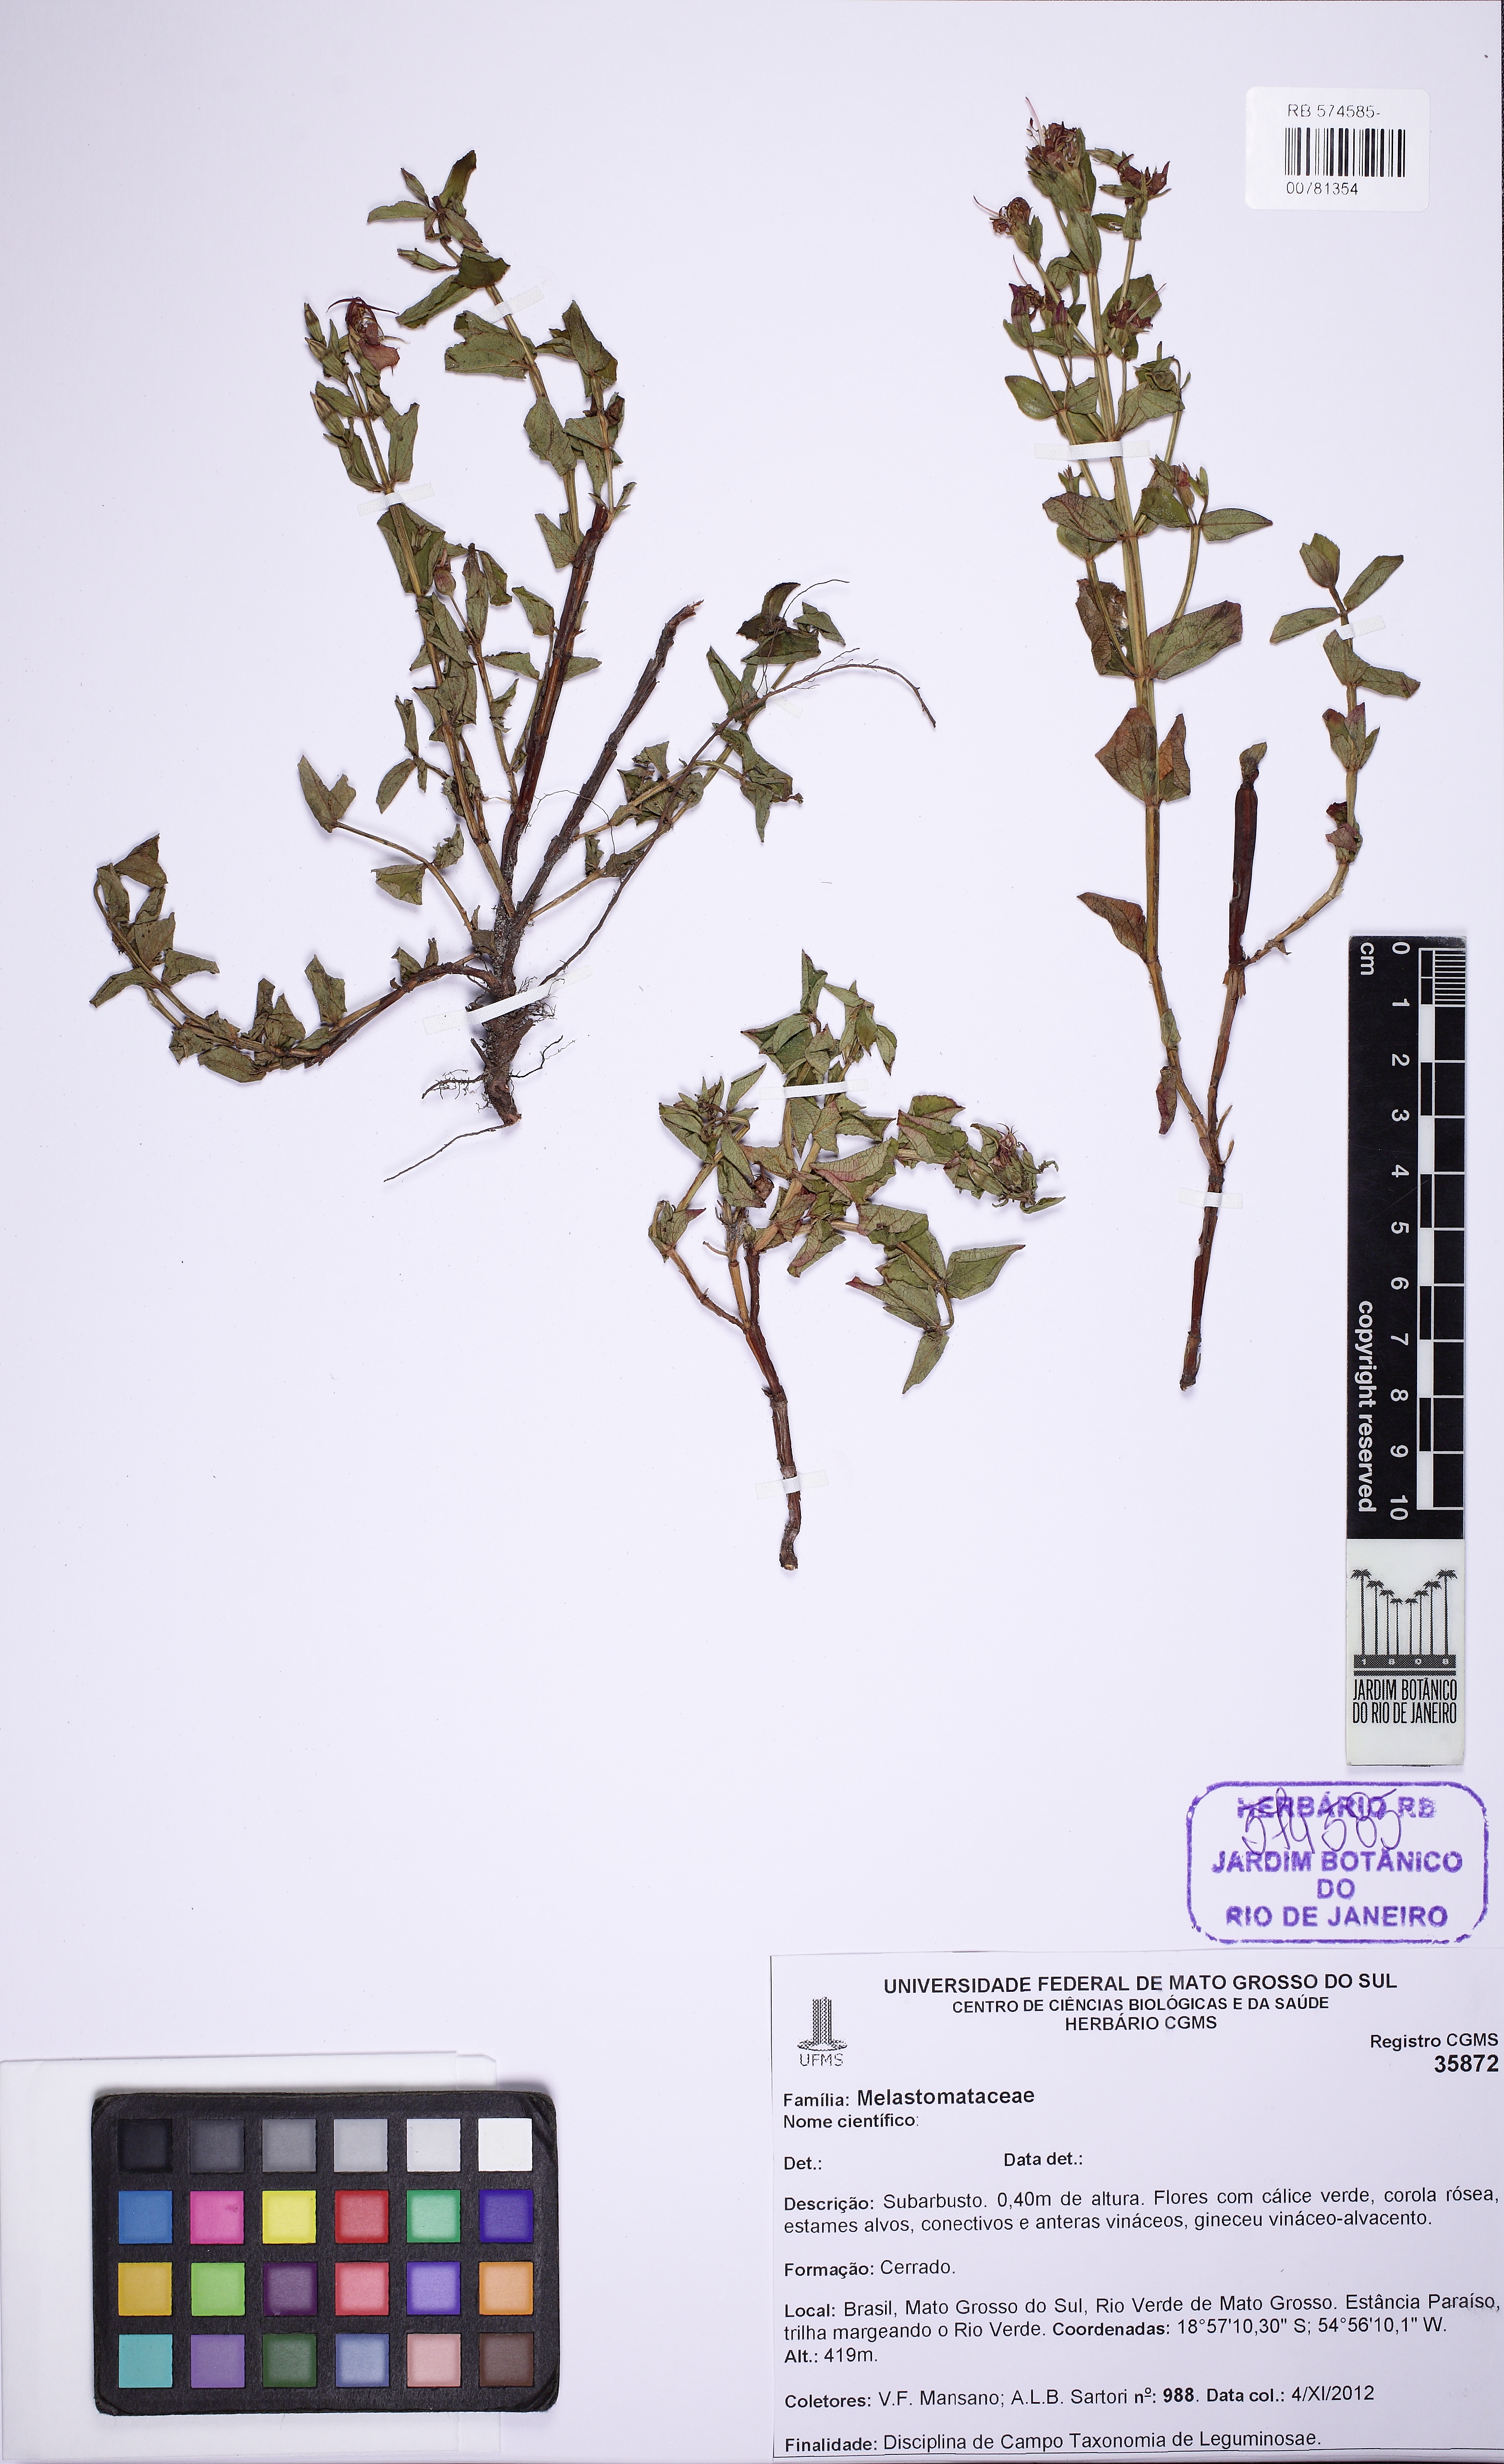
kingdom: Plantae
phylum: Tracheophyta
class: Magnoliopsida
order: Myrtales
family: Melastomataceae
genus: Acisanthera
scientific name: Acisanthera paraguayensis
